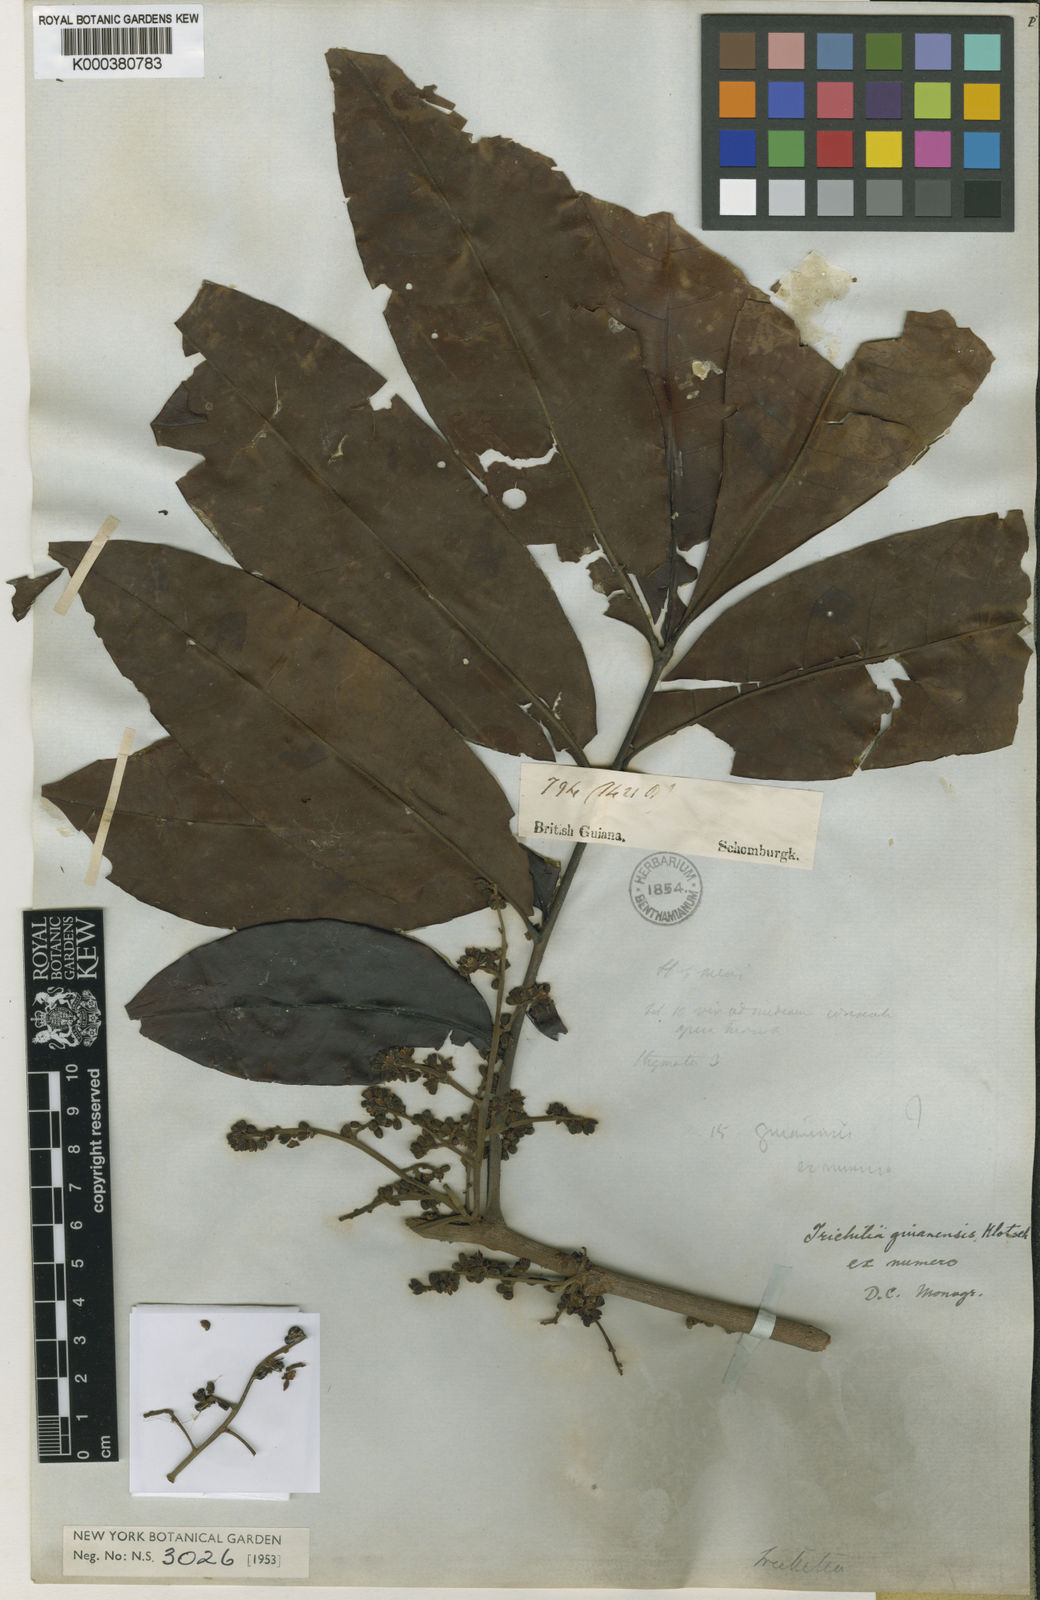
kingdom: Plantae
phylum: Tracheophyta
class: Magnoliopsida
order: Sapindales
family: Meliaceae
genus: Trichilia
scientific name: Trichilia rubra
